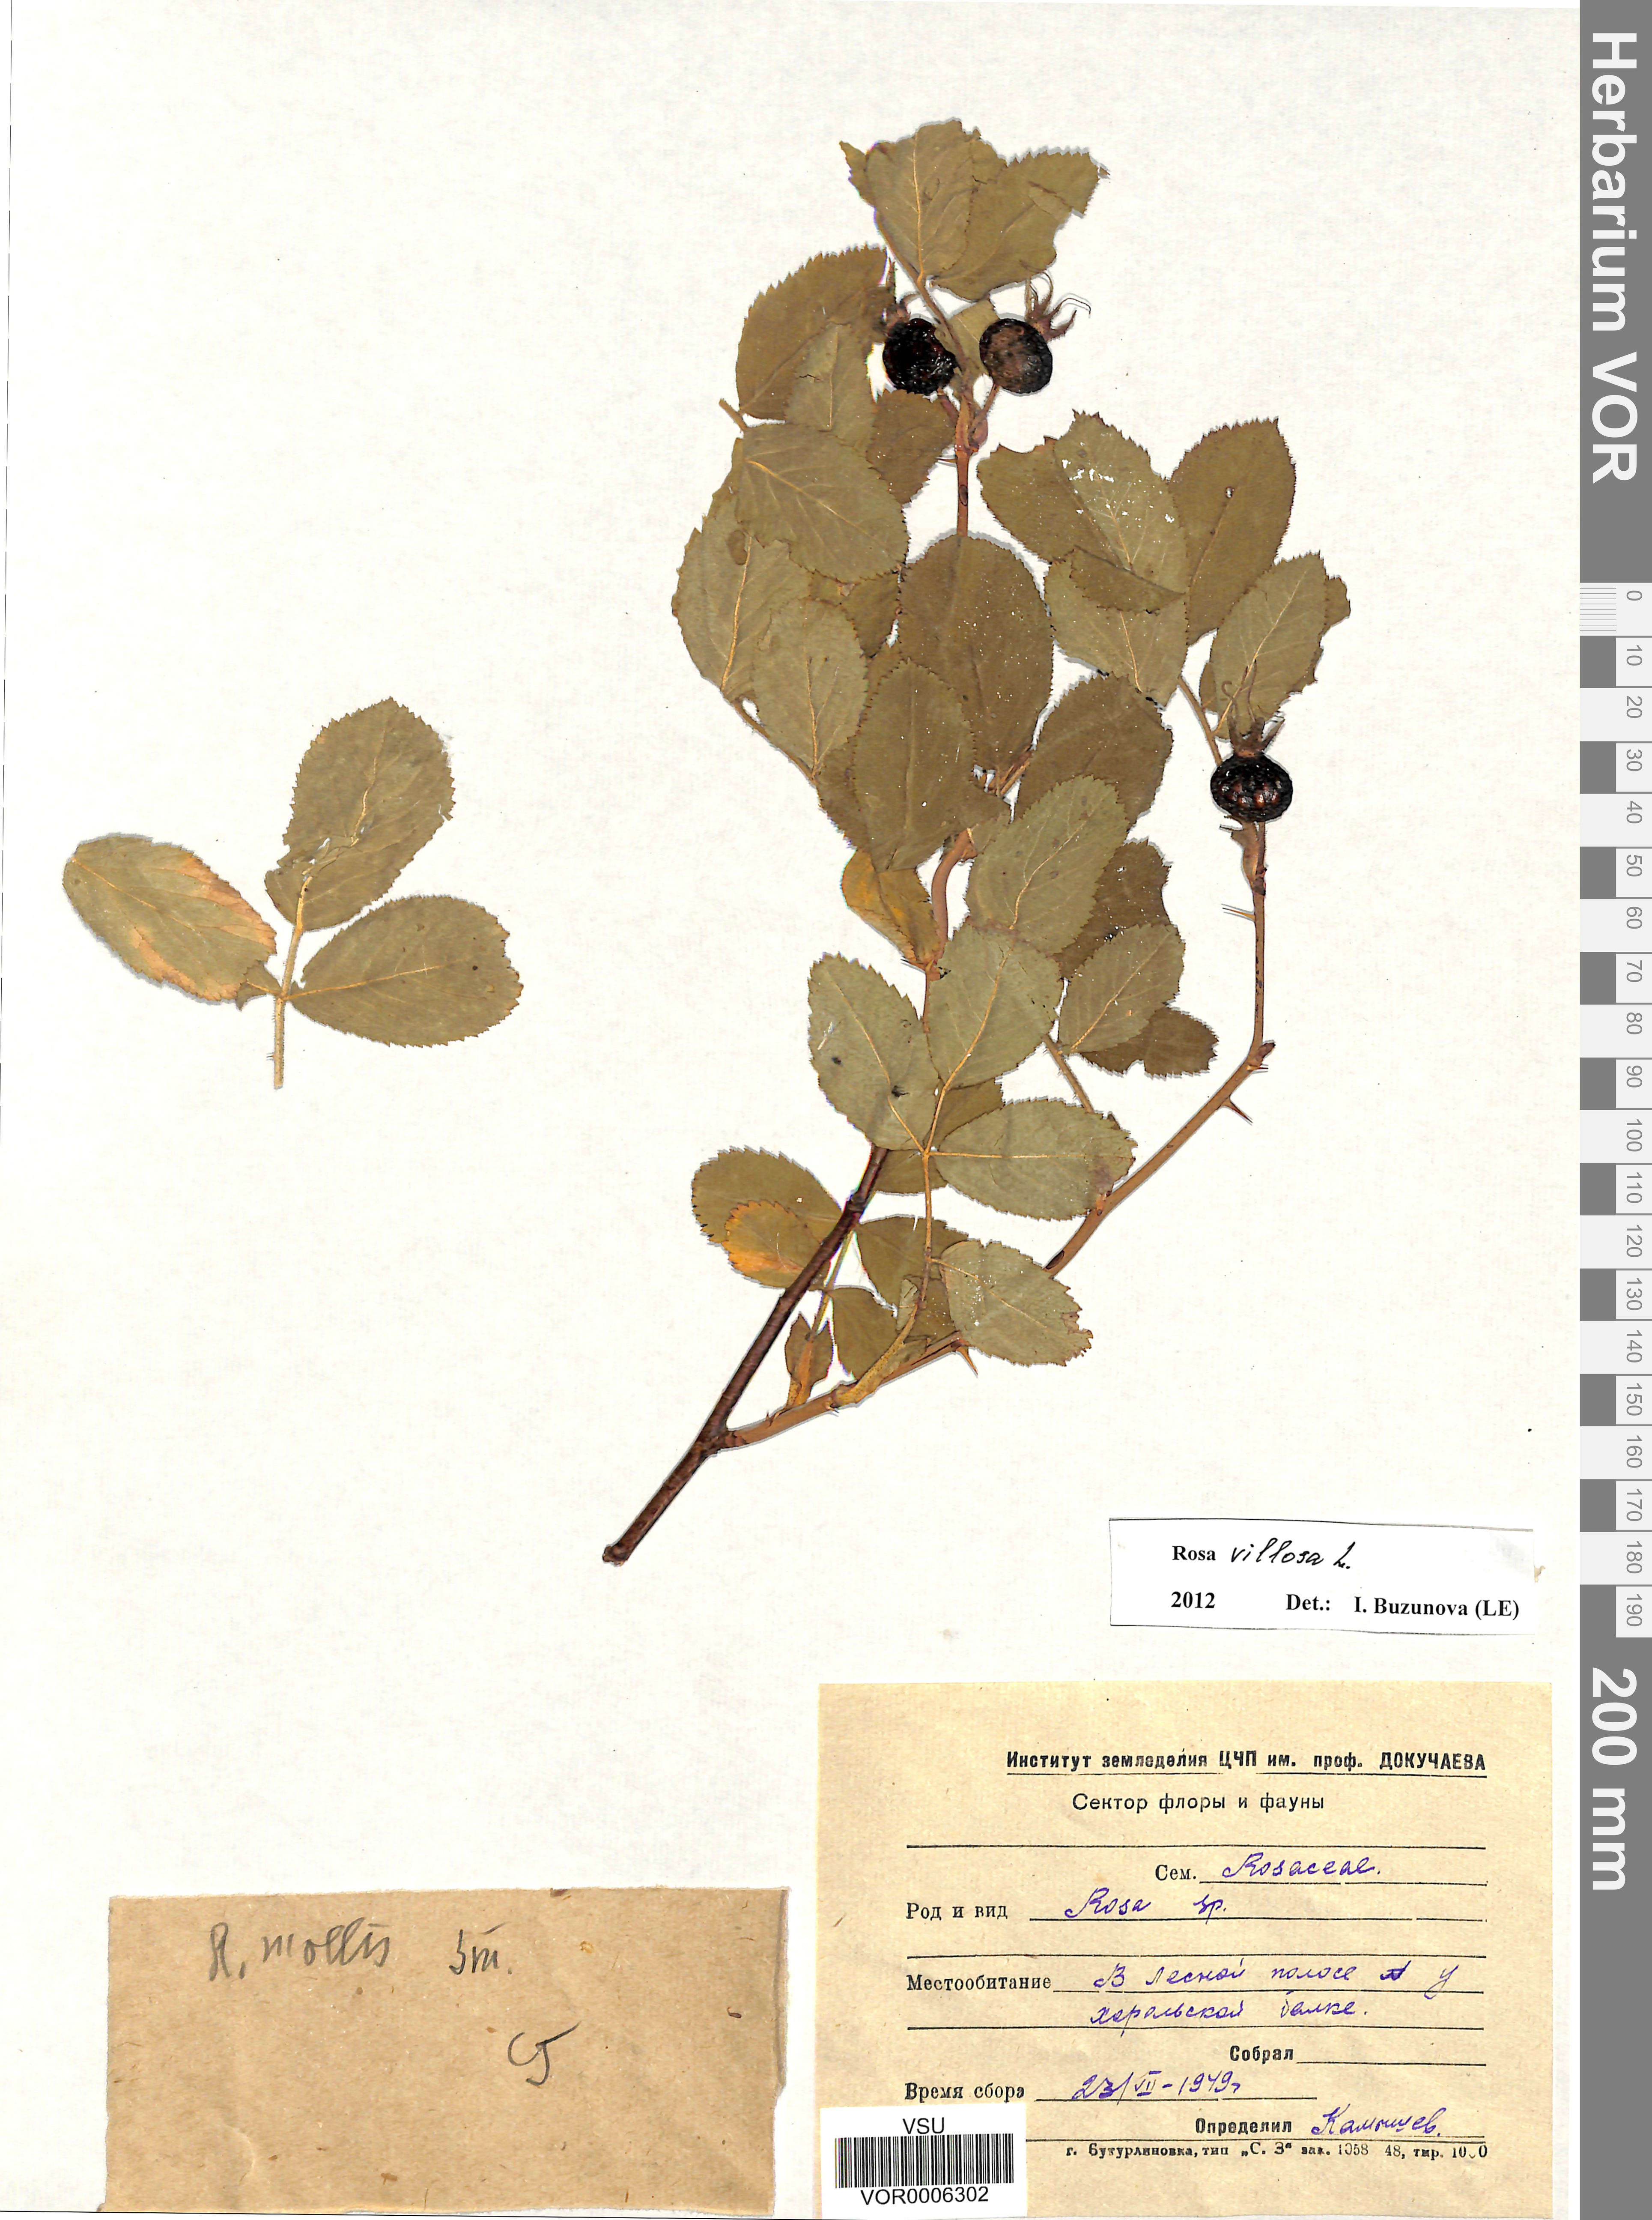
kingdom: Plantae
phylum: Tracheophyta
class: Magnoliopsida
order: Rosales
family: Rosaceae
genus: Rosa
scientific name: Rosa villosa
